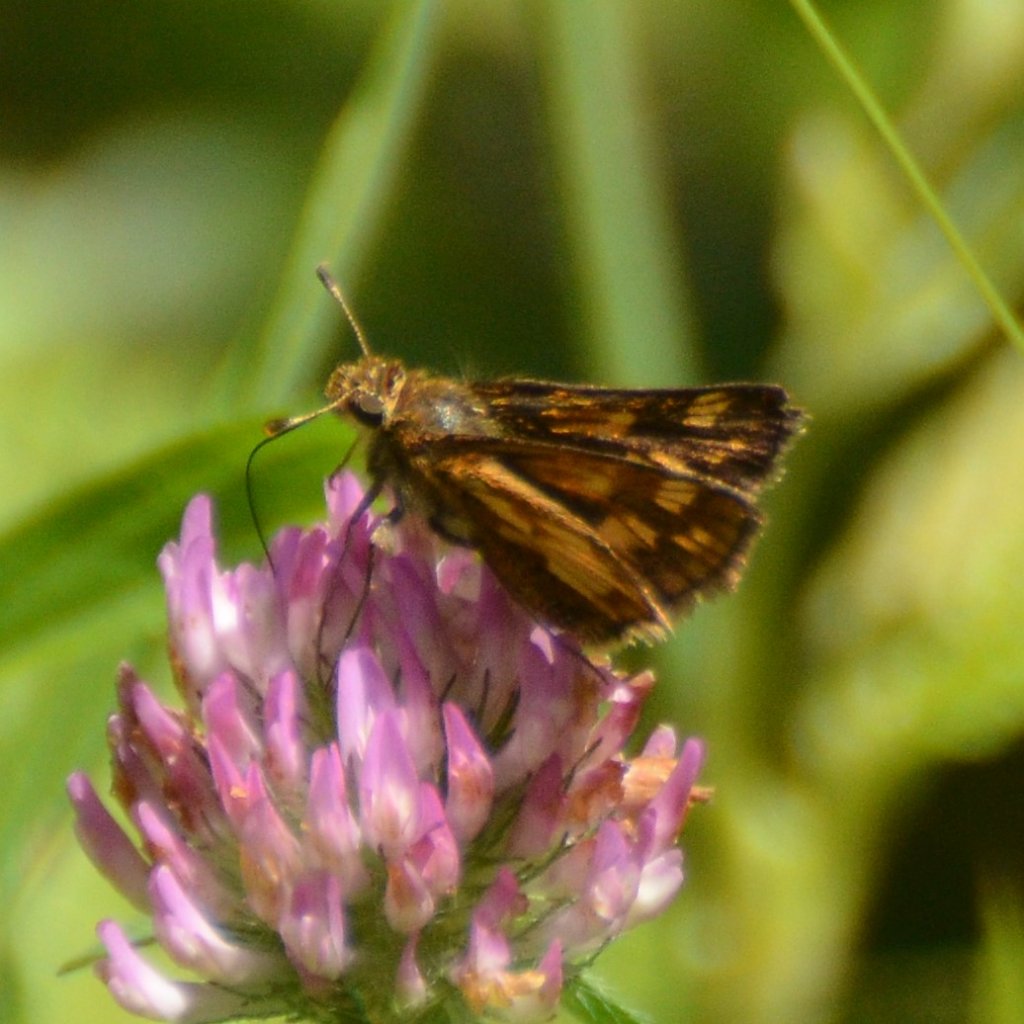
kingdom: Animalia
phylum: Arthropoda
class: Insecta
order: Lepidoptera
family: Hesperiidae
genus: Polites
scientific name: Polites coras
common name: Peck's Skipper
